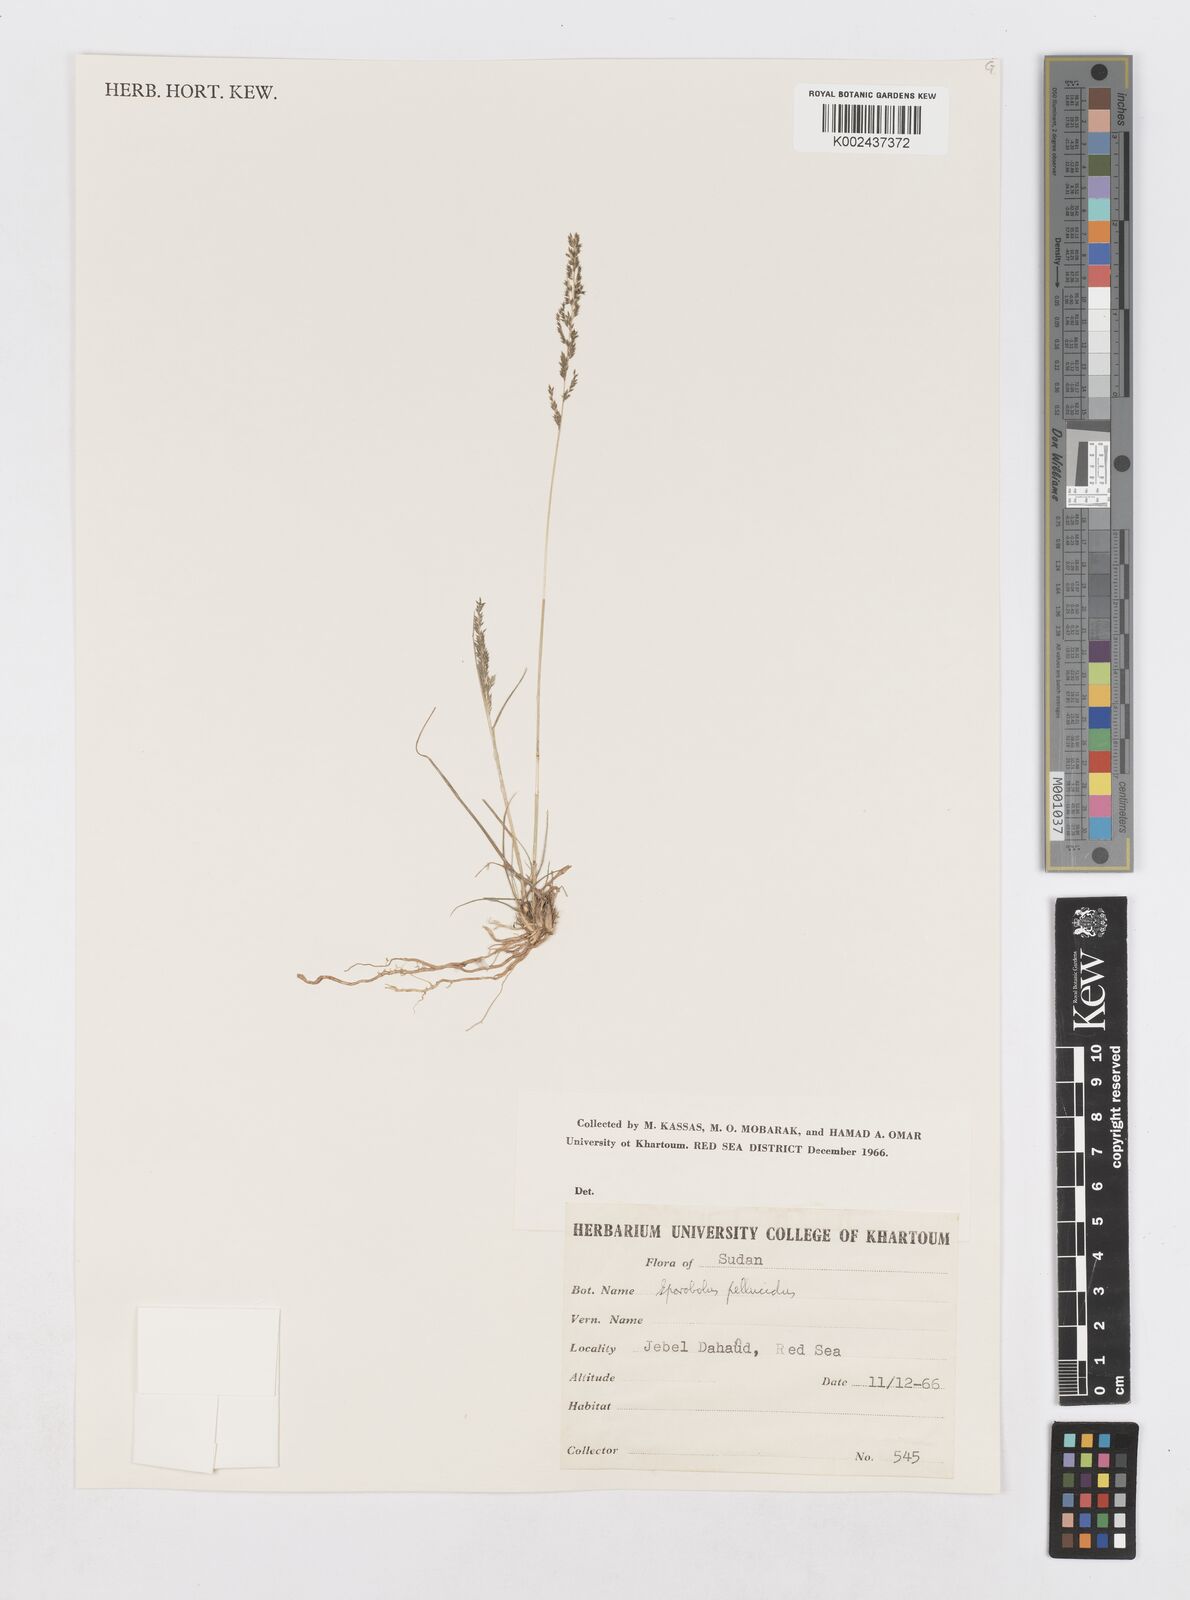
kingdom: Plantae
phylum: Tracheophyta
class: Liliopsida
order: Poales
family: Poaceae
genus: Sporobolus
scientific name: Sporobolus pellucidus
